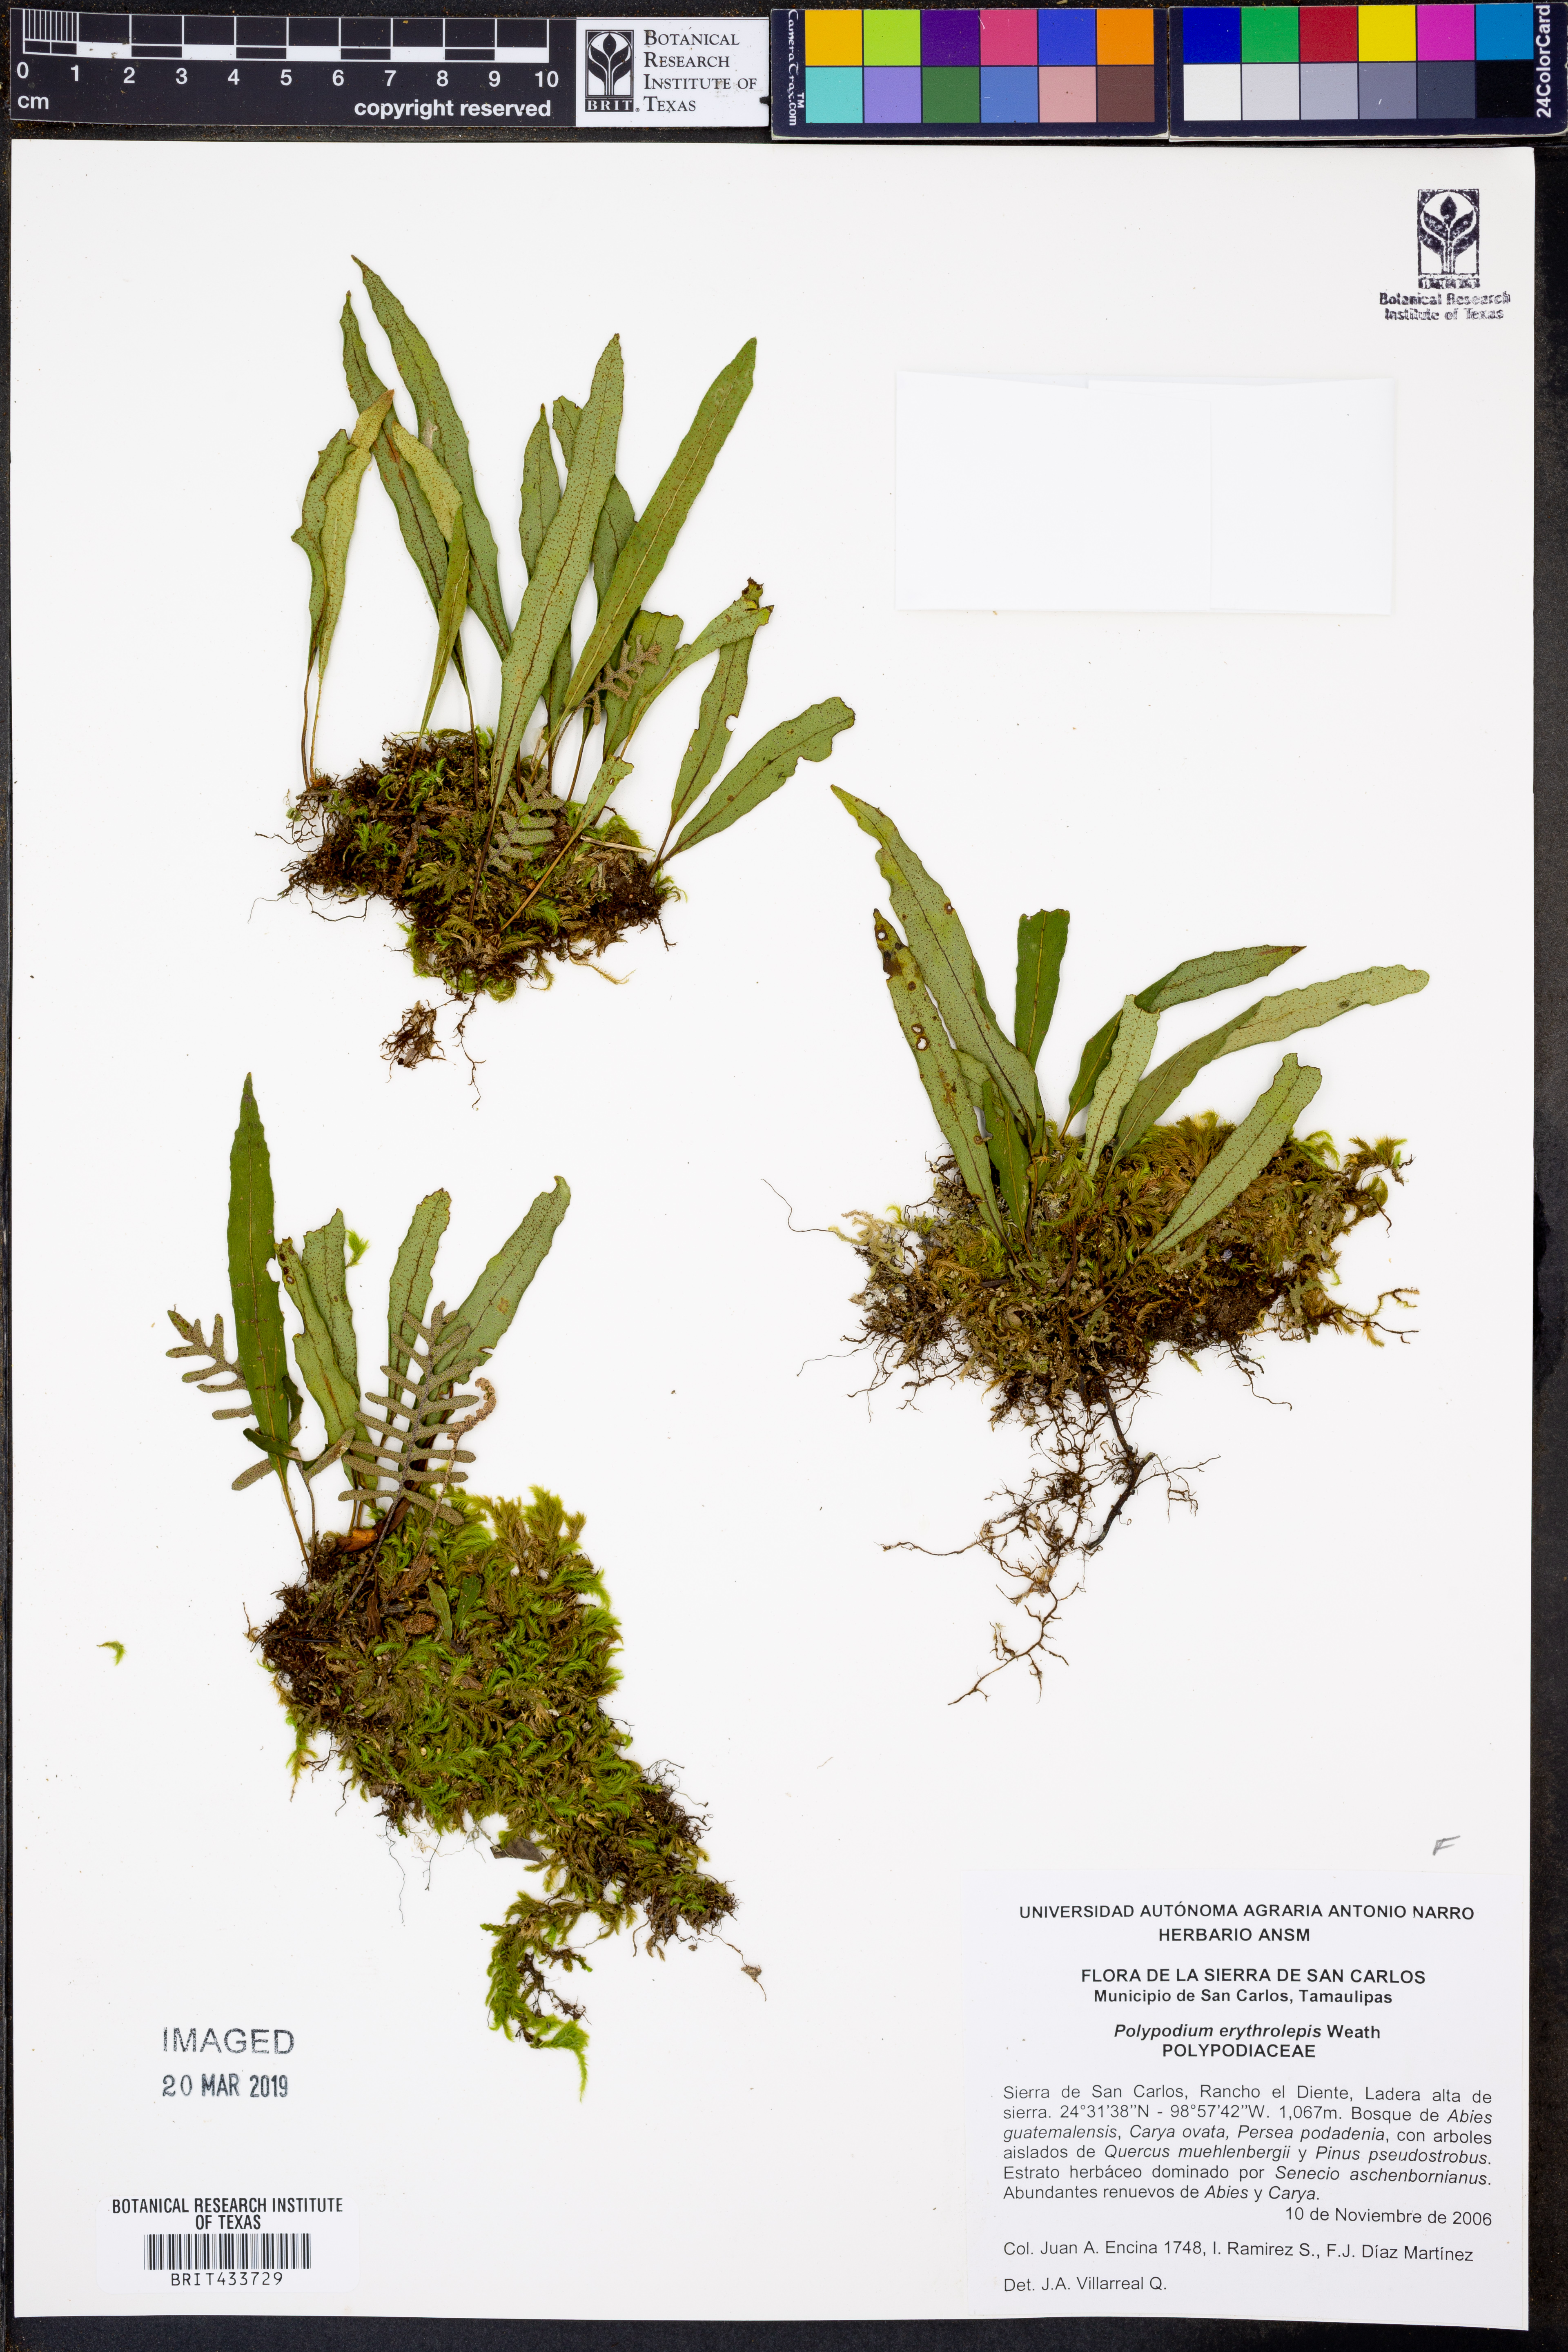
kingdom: Plantae
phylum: Tracheophyta
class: Polypodiopsida
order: Polypodiales
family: Polypodiaceae
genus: Pleopeltis
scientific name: Pleopeltis polylepis
